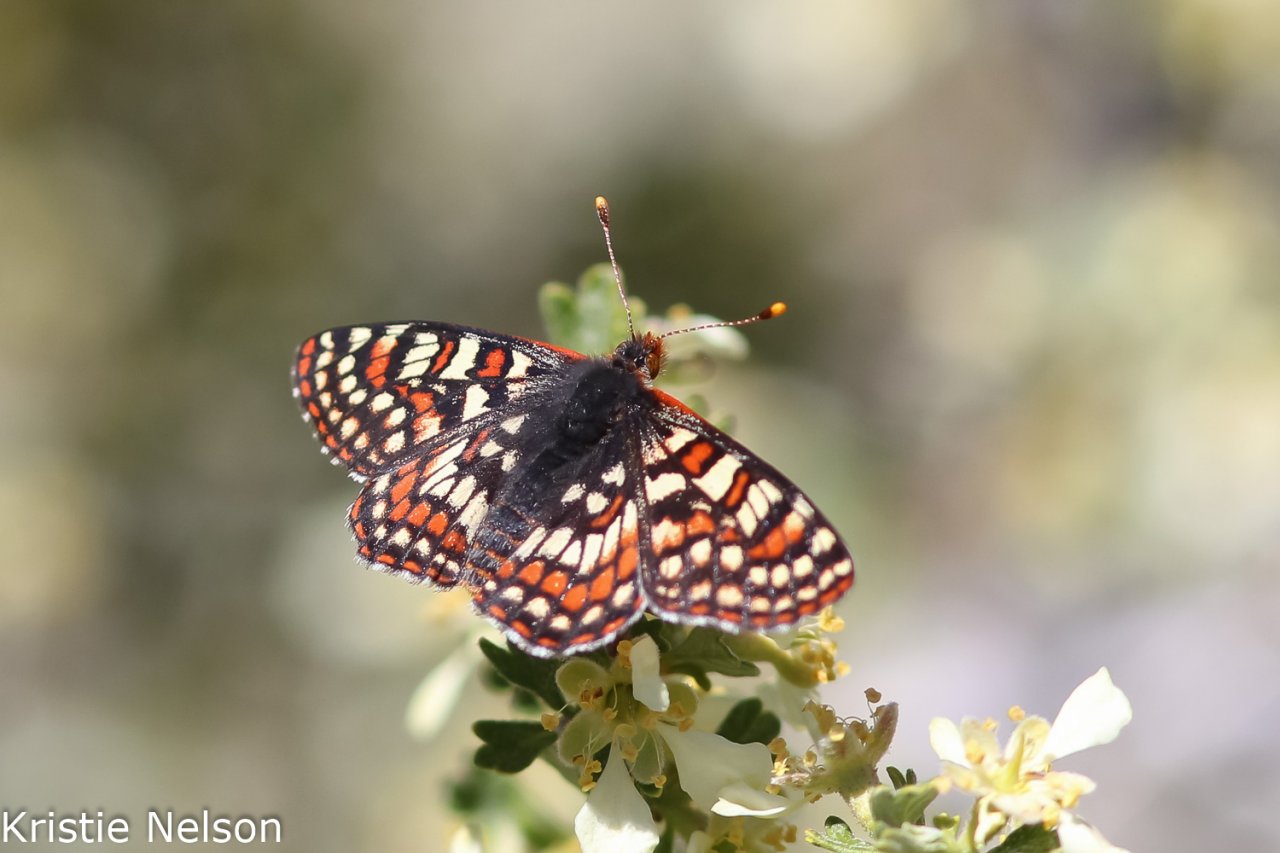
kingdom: Animalia
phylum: Arthropoda
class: Insecta
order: Lepidoptera
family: Nymphalidae
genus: Occidryas
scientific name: Occidryas editha
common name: Edith's Checkerspot
